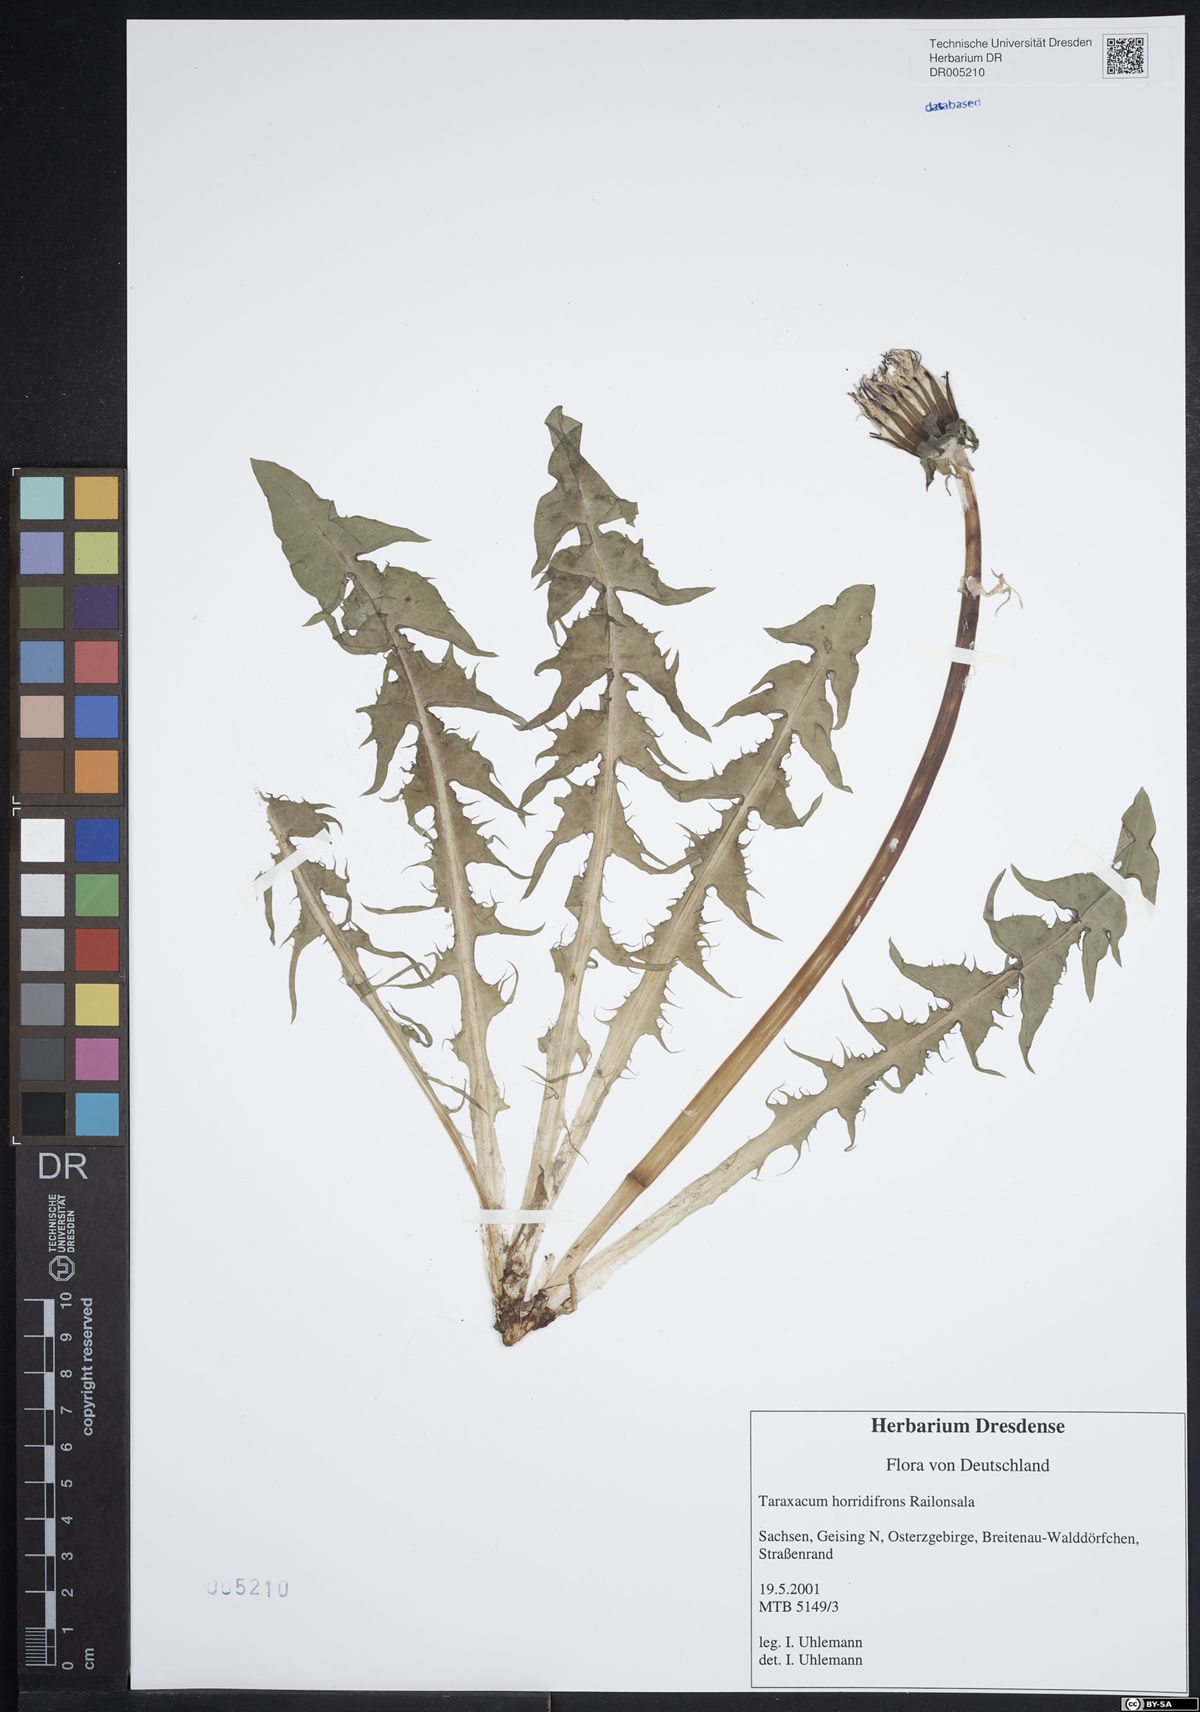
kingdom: Plantae
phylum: Tracheophyta
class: Magnoliopsida
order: Asterales
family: Asteraceae
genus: Taraxacum
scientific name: Taraxacum horridifrons
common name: Prickly-leaved dandelion
